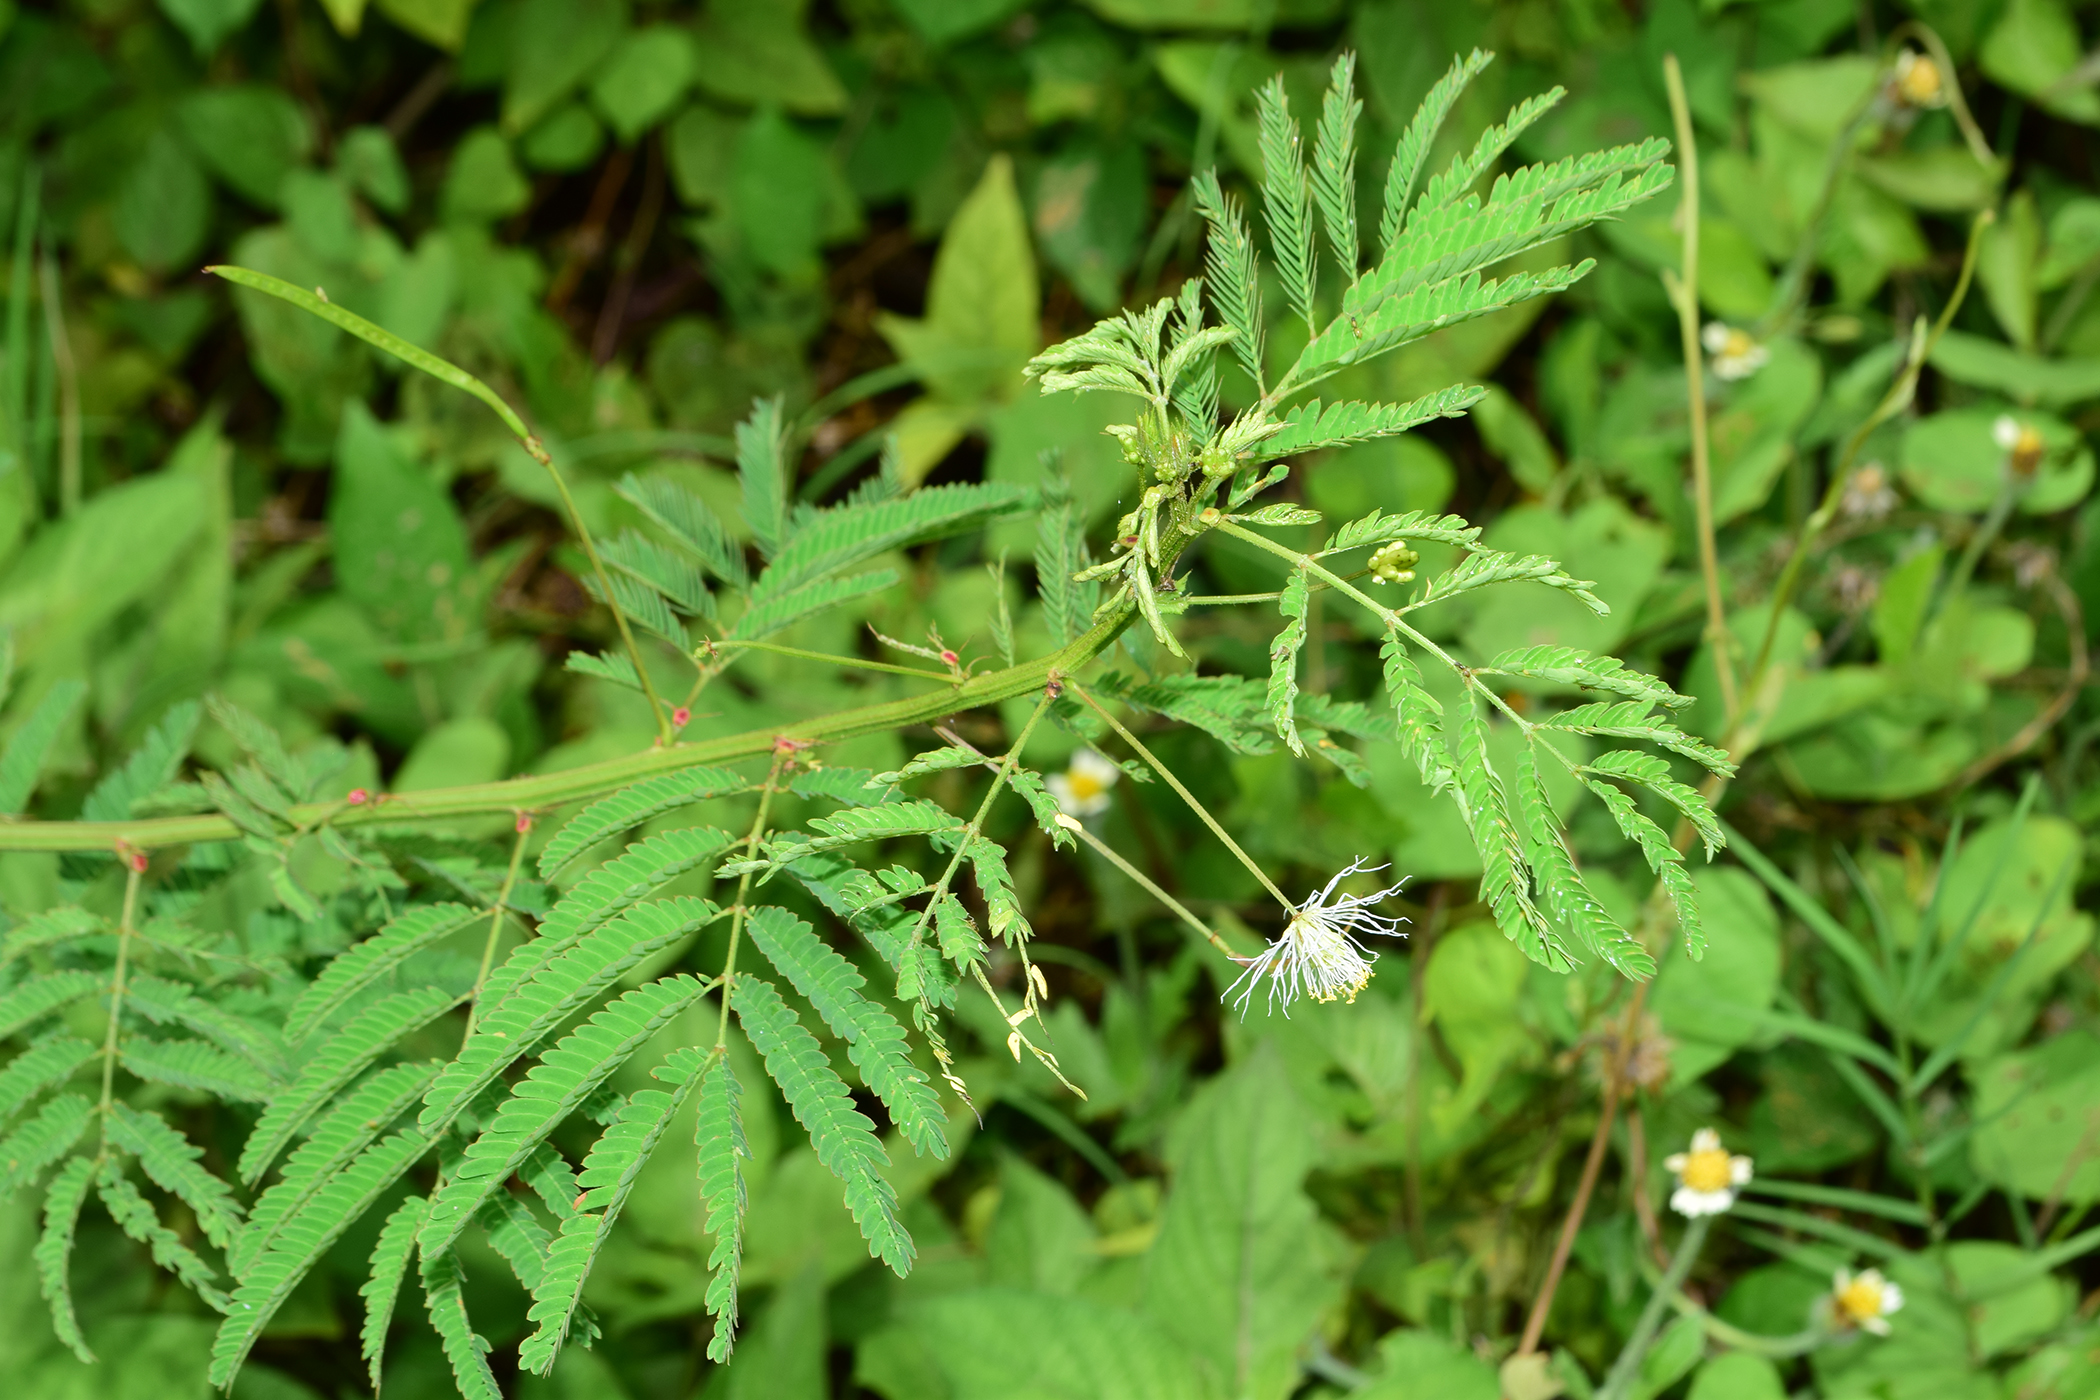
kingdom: Plantae
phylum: Tracheophyta
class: Magnoliopsida
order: Fabales
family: Fabaceae
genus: Desmanthus
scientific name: Desmanthus virgatus
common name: Wild tantan
